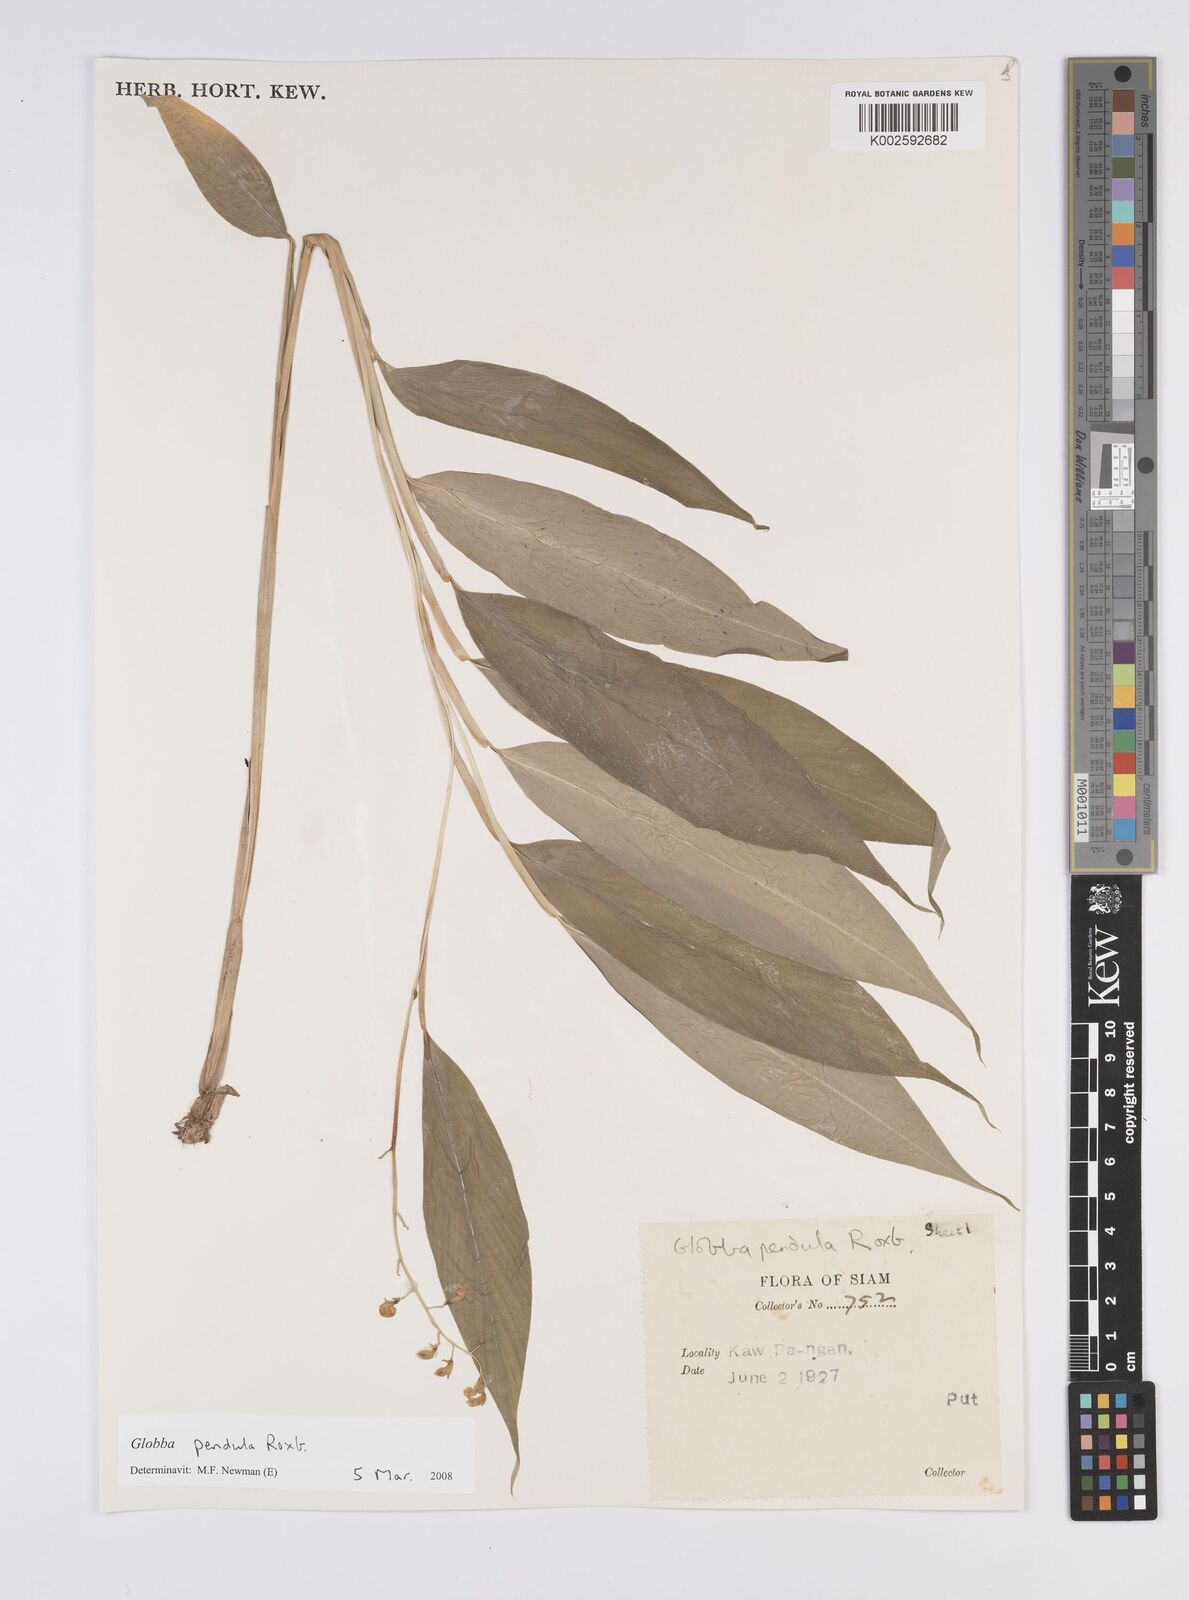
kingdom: Plantae
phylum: Tracheophyta
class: Liliopsida
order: Zingiberales
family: Zingiberaceae
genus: Globba
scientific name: Globba pendula
